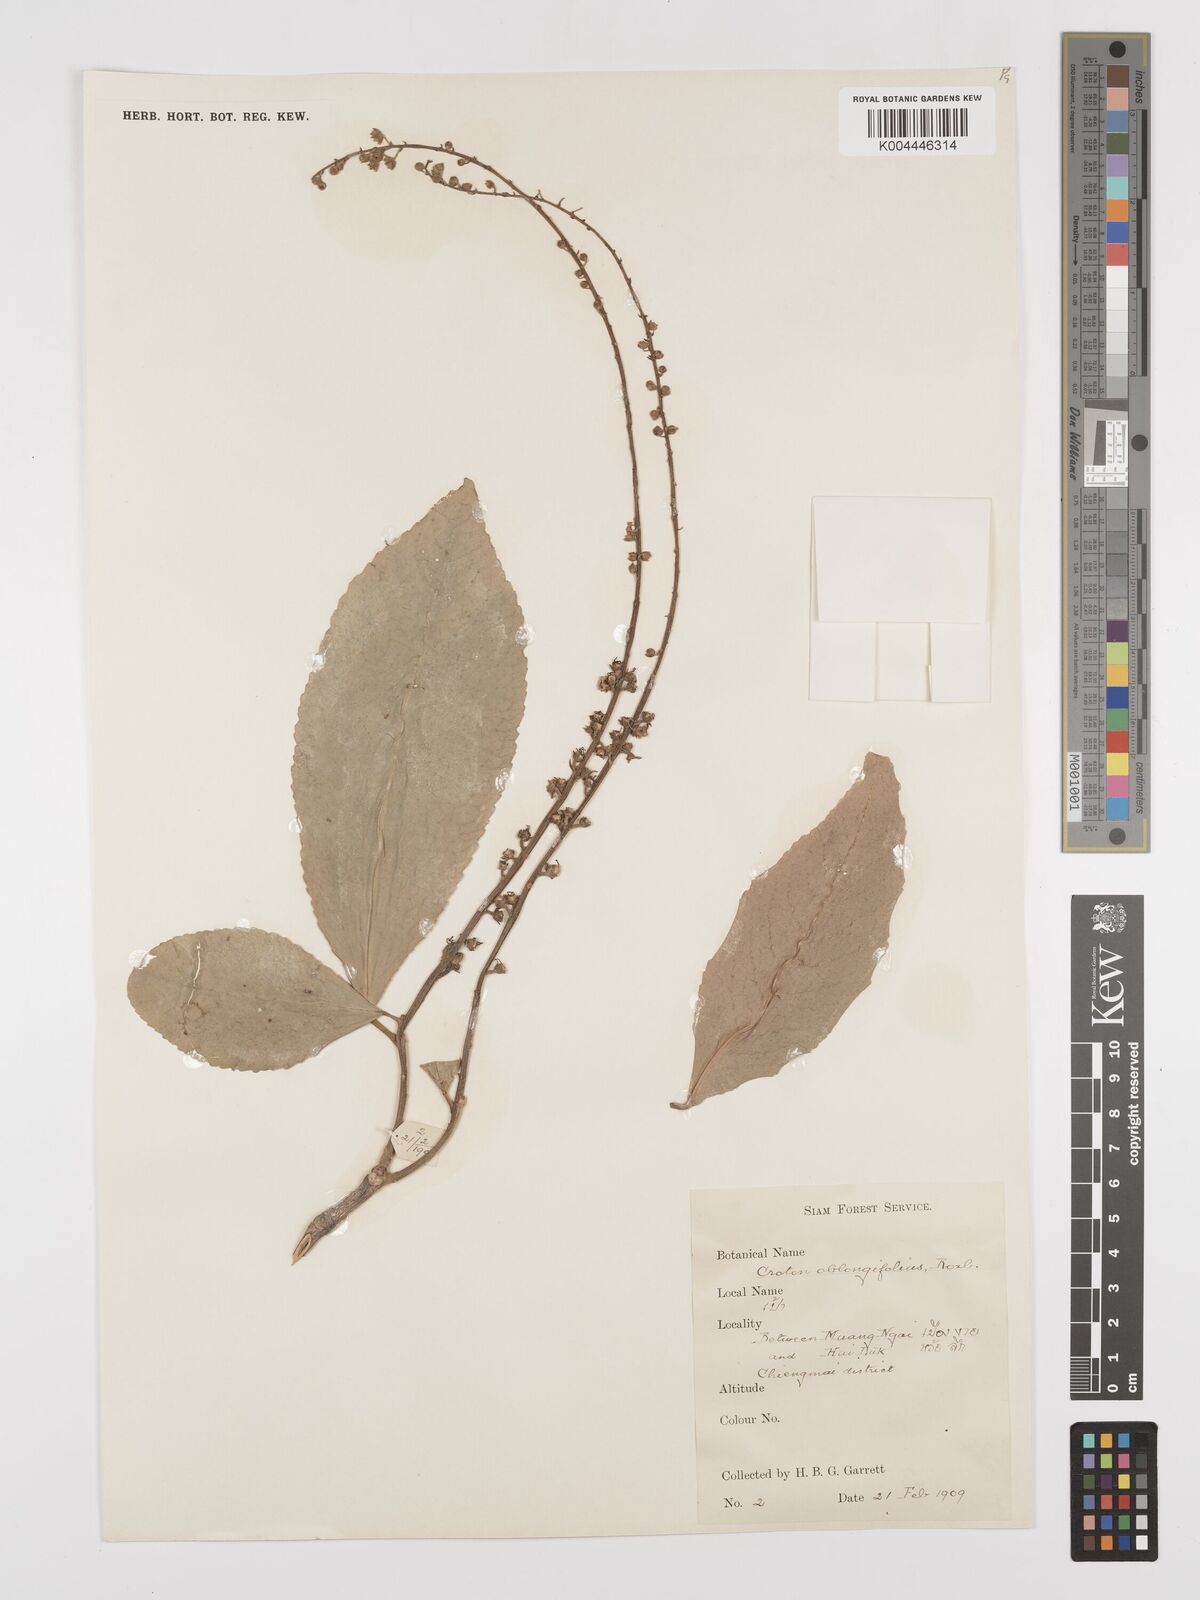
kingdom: Plantae
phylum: Tracheophyta
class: Magnoliopsida
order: Malpighiales
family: Euphorbiaceae
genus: Croton
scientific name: Croton
